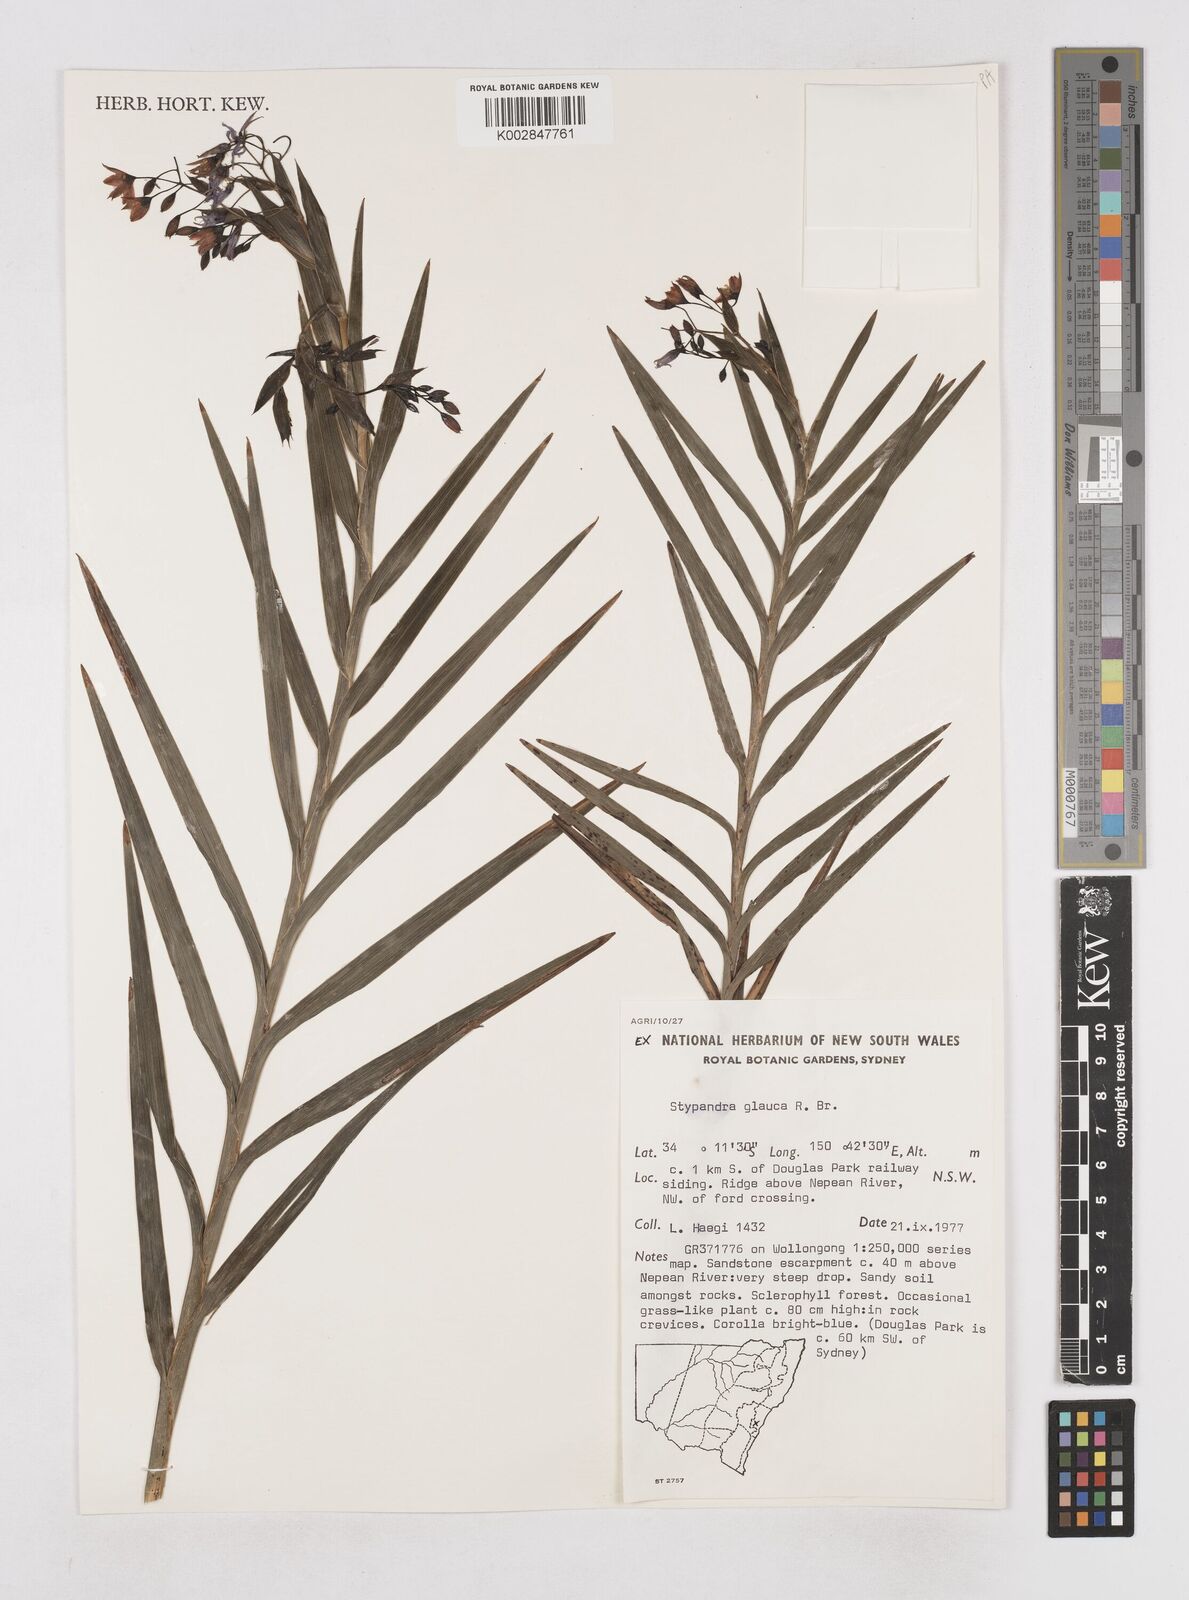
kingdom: Plantae
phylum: Tracheophyta
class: Liliopsida
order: Asparagales
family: Asphodelaceae
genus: Stypandra
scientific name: Stypandra glauca
